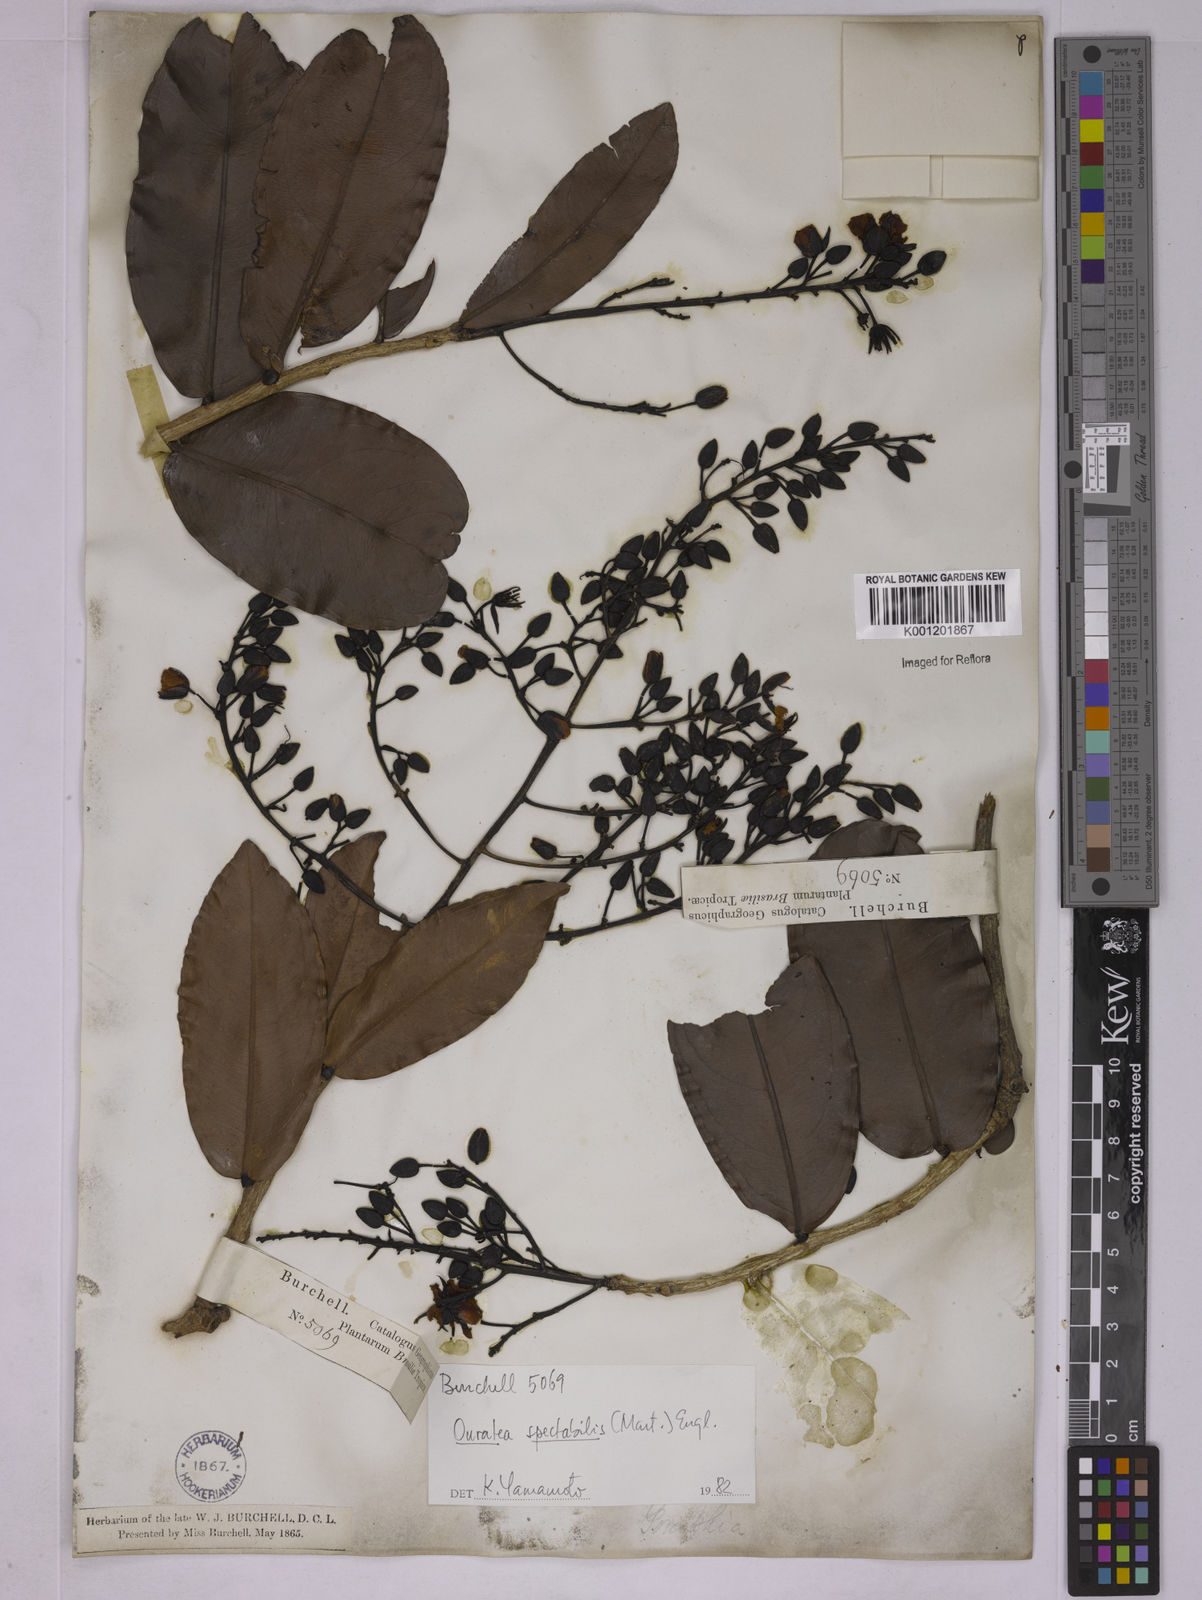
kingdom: Plantae
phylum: Tracheophyta
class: Magnoliopsida
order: Malpighiales
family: Ochnaceae
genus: Ouratea
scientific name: Ouratea spectabilis
